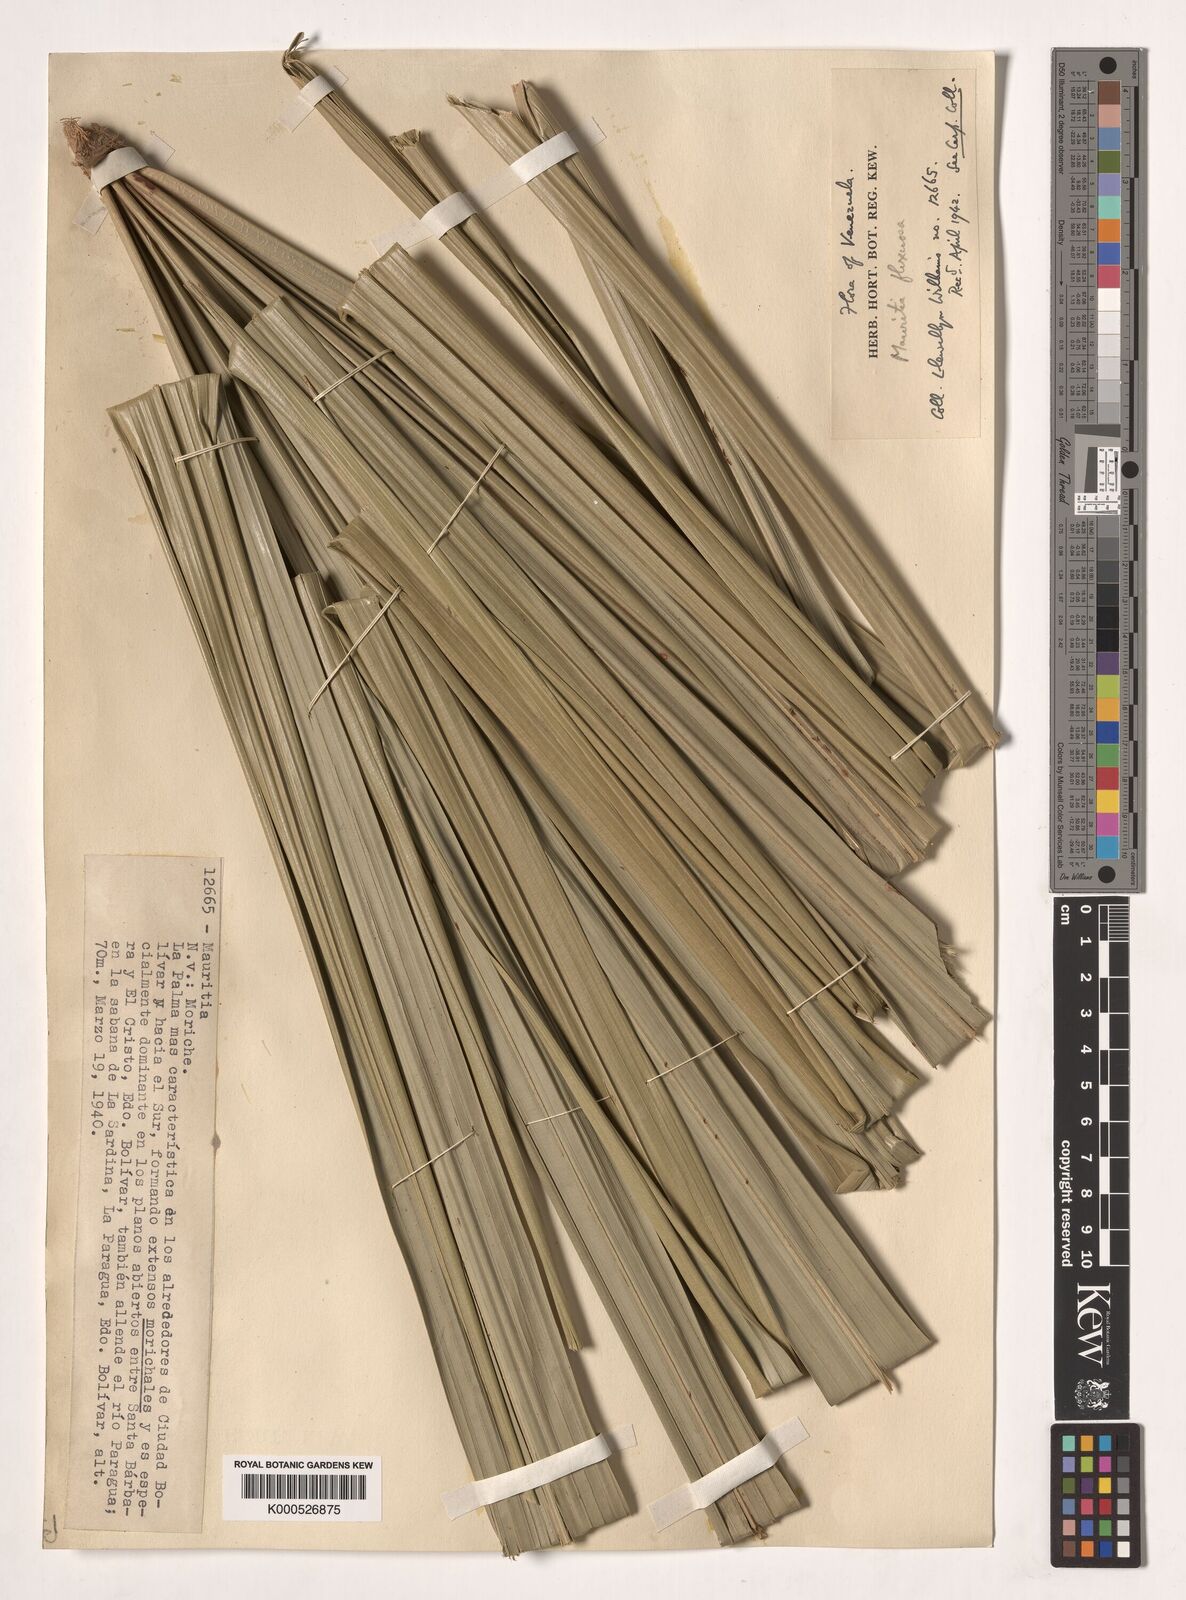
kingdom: Plantae
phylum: Tracheophyta
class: Liliopsida
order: Arecales
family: Arecaceae
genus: Mauritia
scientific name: Mauritia flexuosa
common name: Tree-of-life
